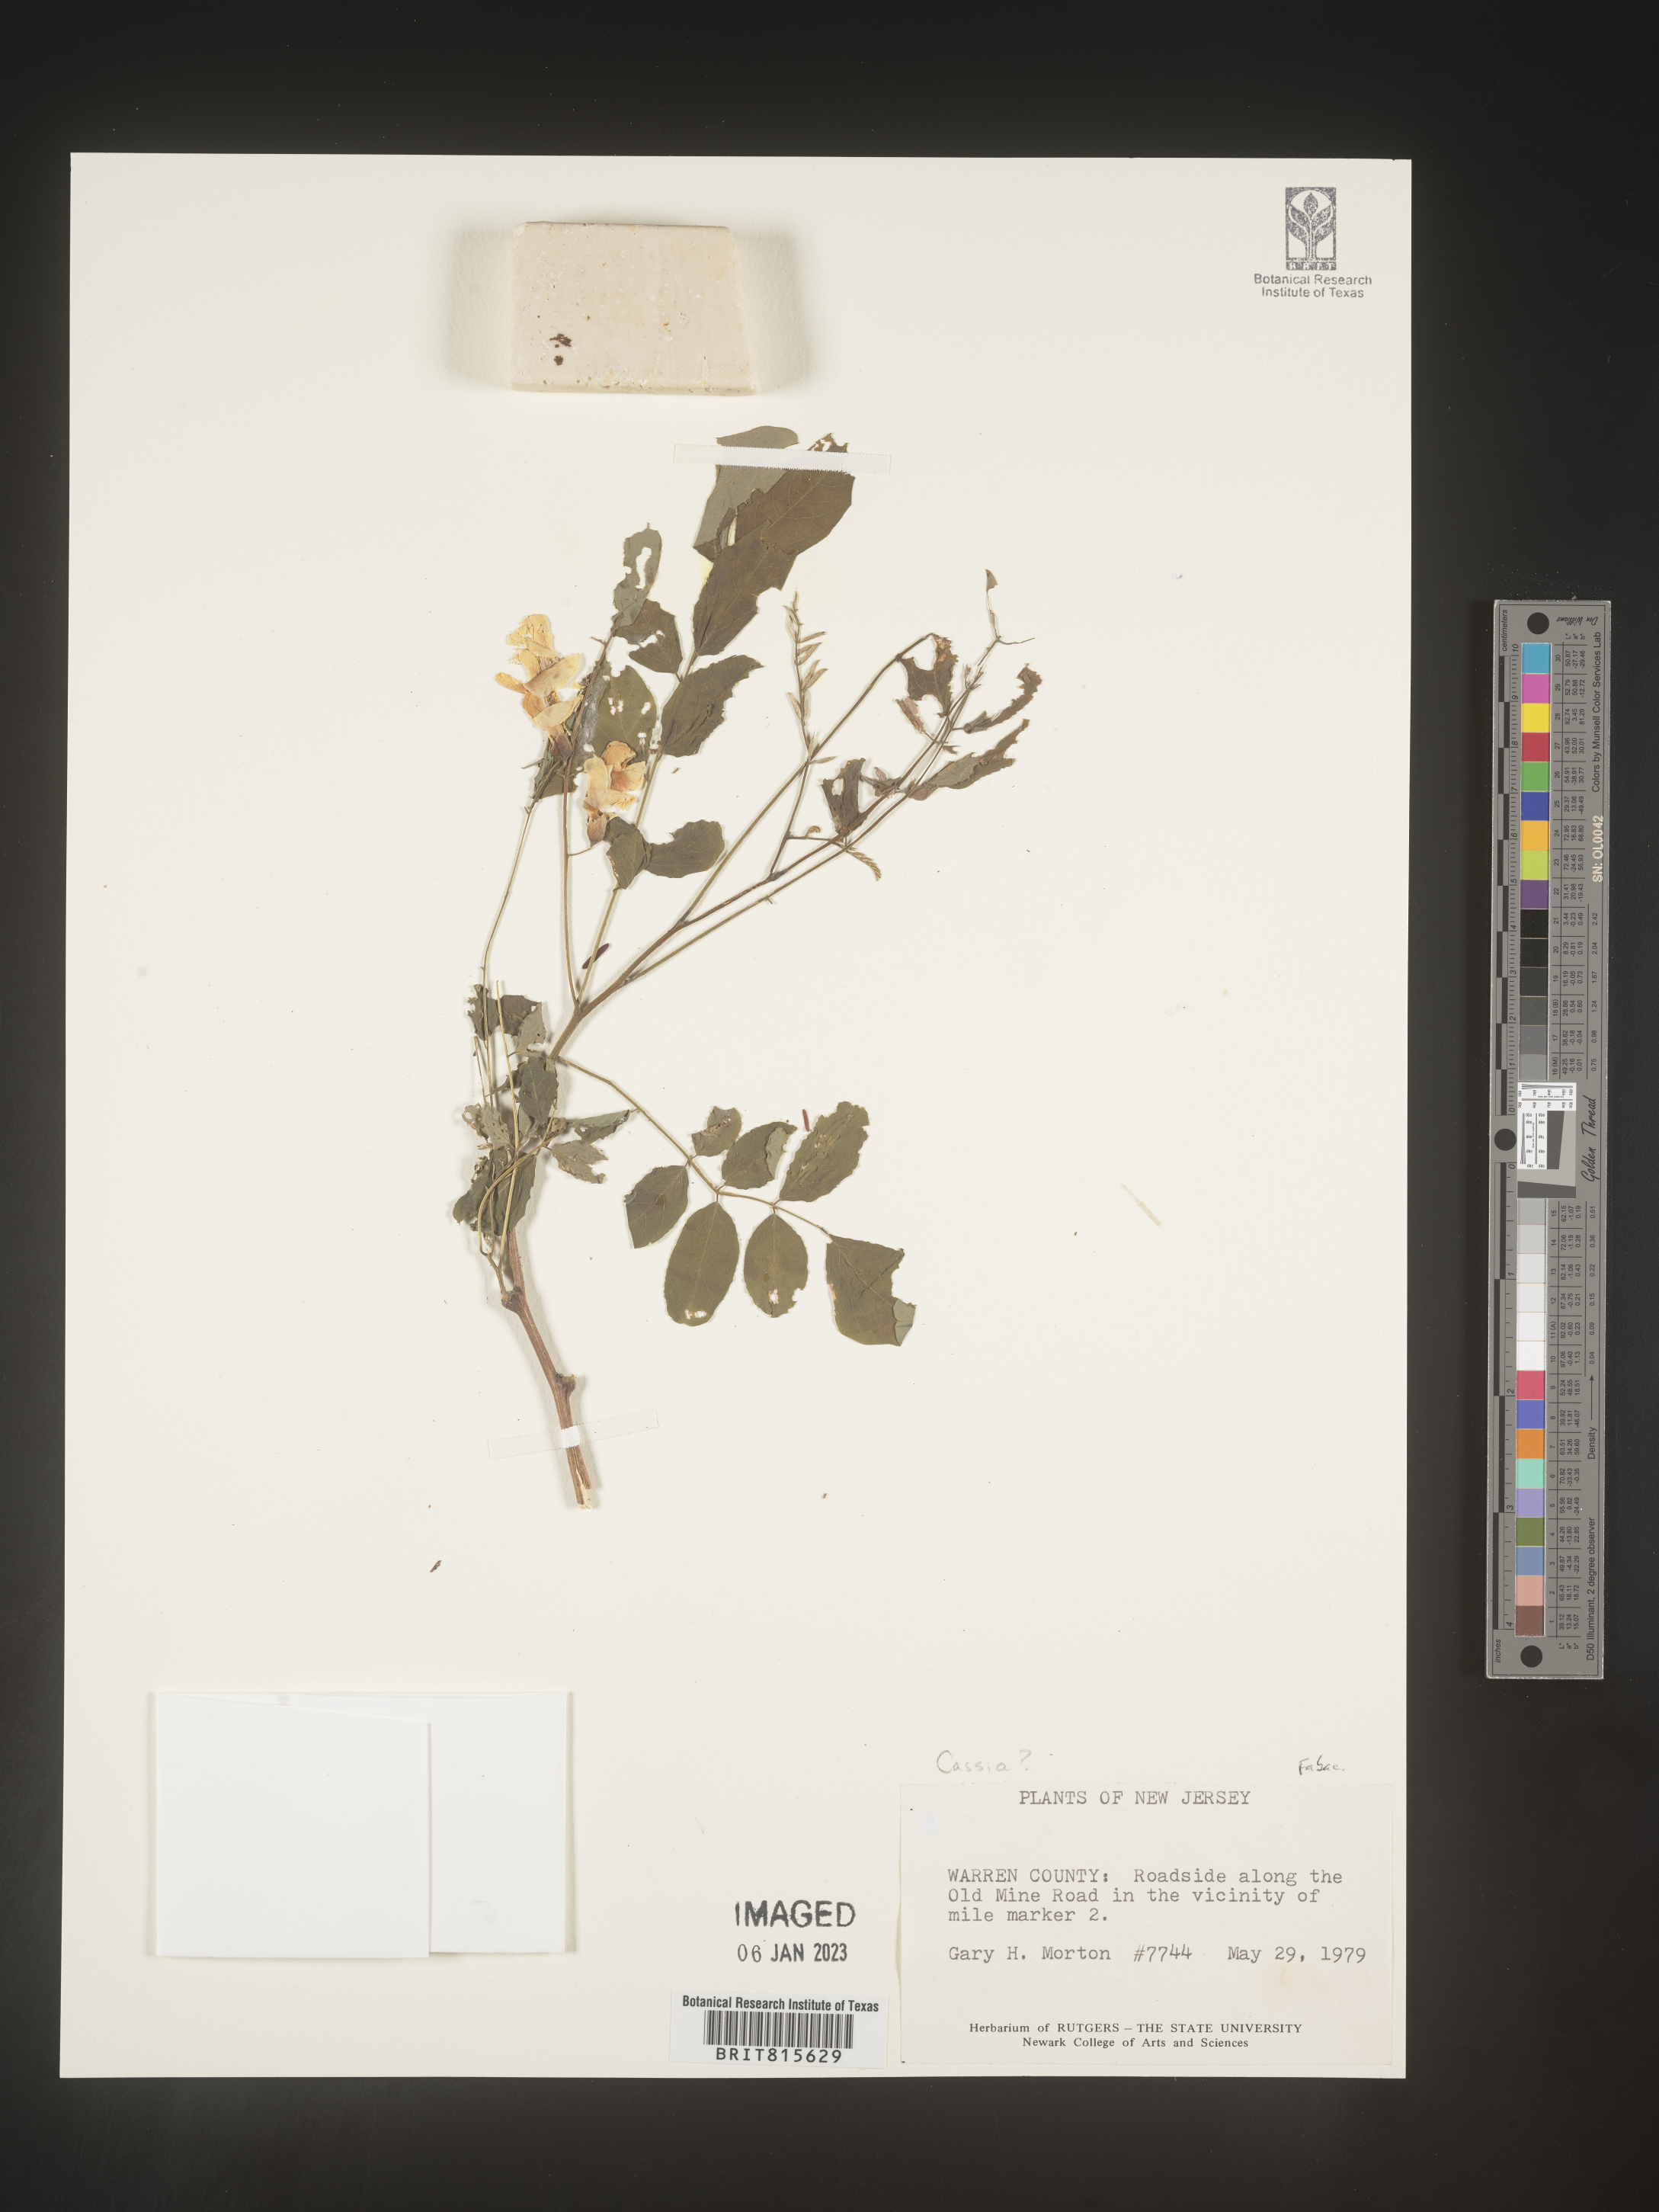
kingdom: Plantae
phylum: Tracheophyta
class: Magnoliopsida
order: Fabales
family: Fabaceae
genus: Cassia
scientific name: Cassia
